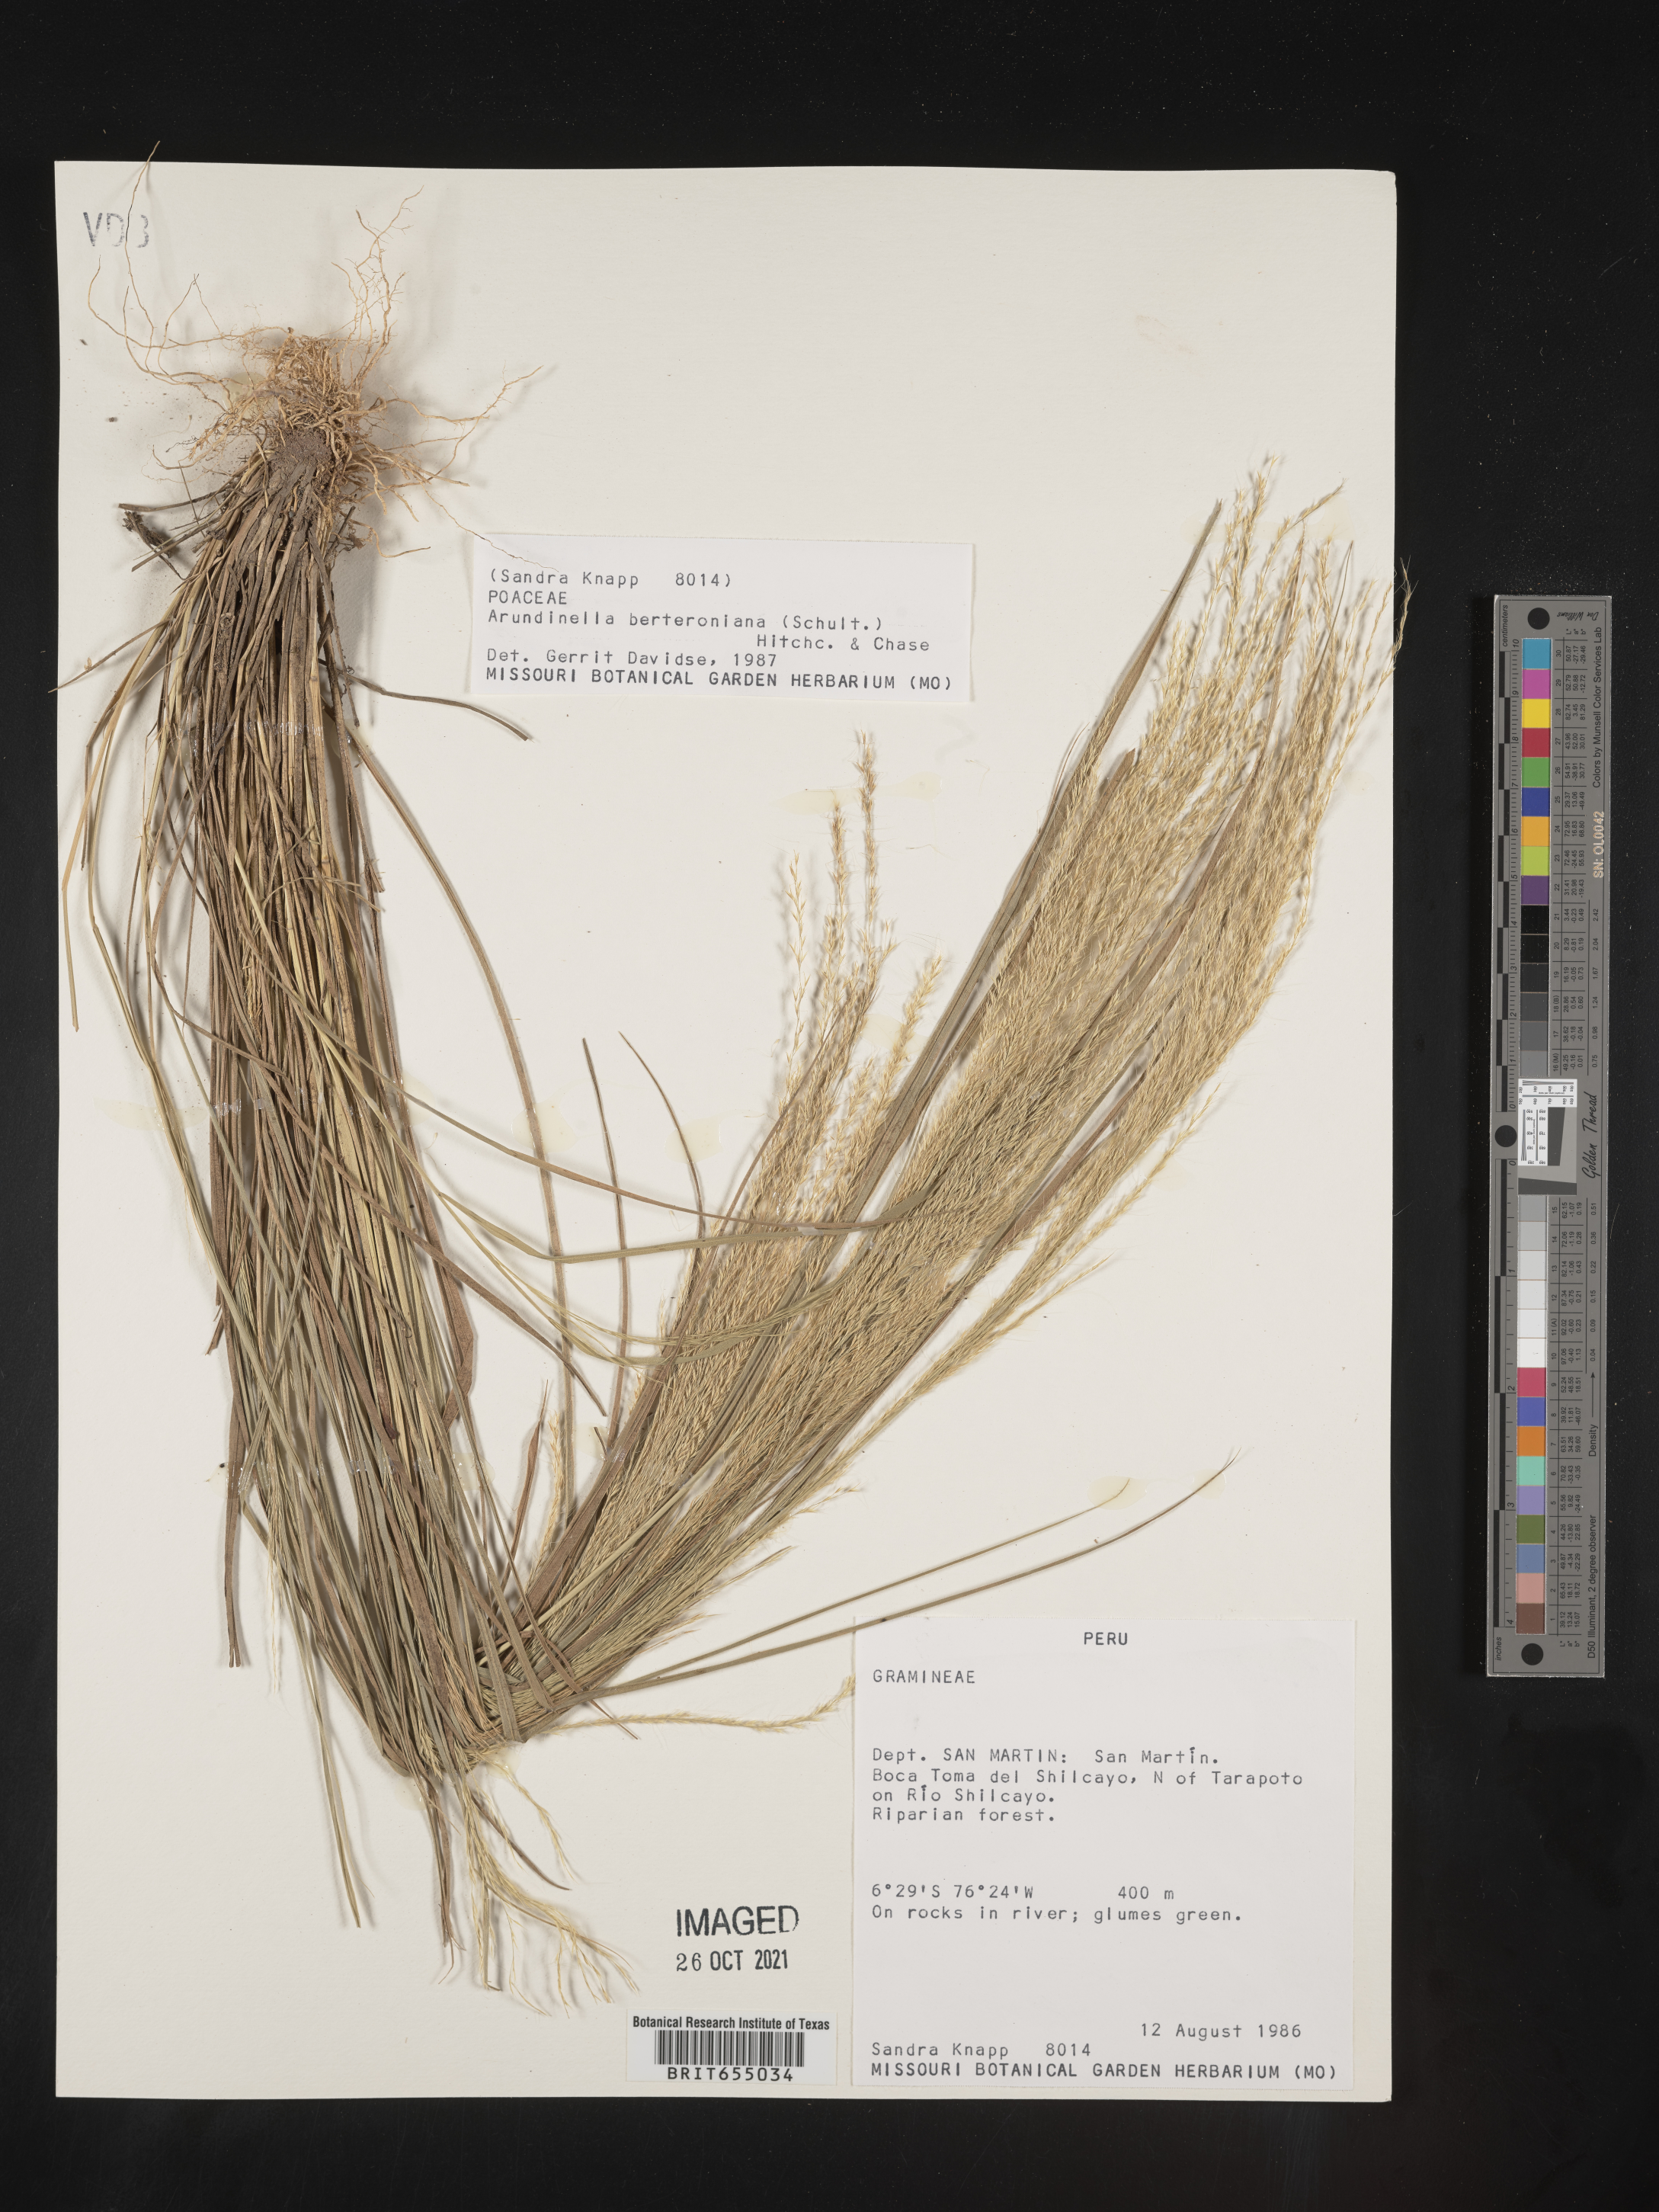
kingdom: Plantae
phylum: Tracheophyta
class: Liliopsida
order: Poales
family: Poaceae
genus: Arundinella
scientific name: Arundinella
